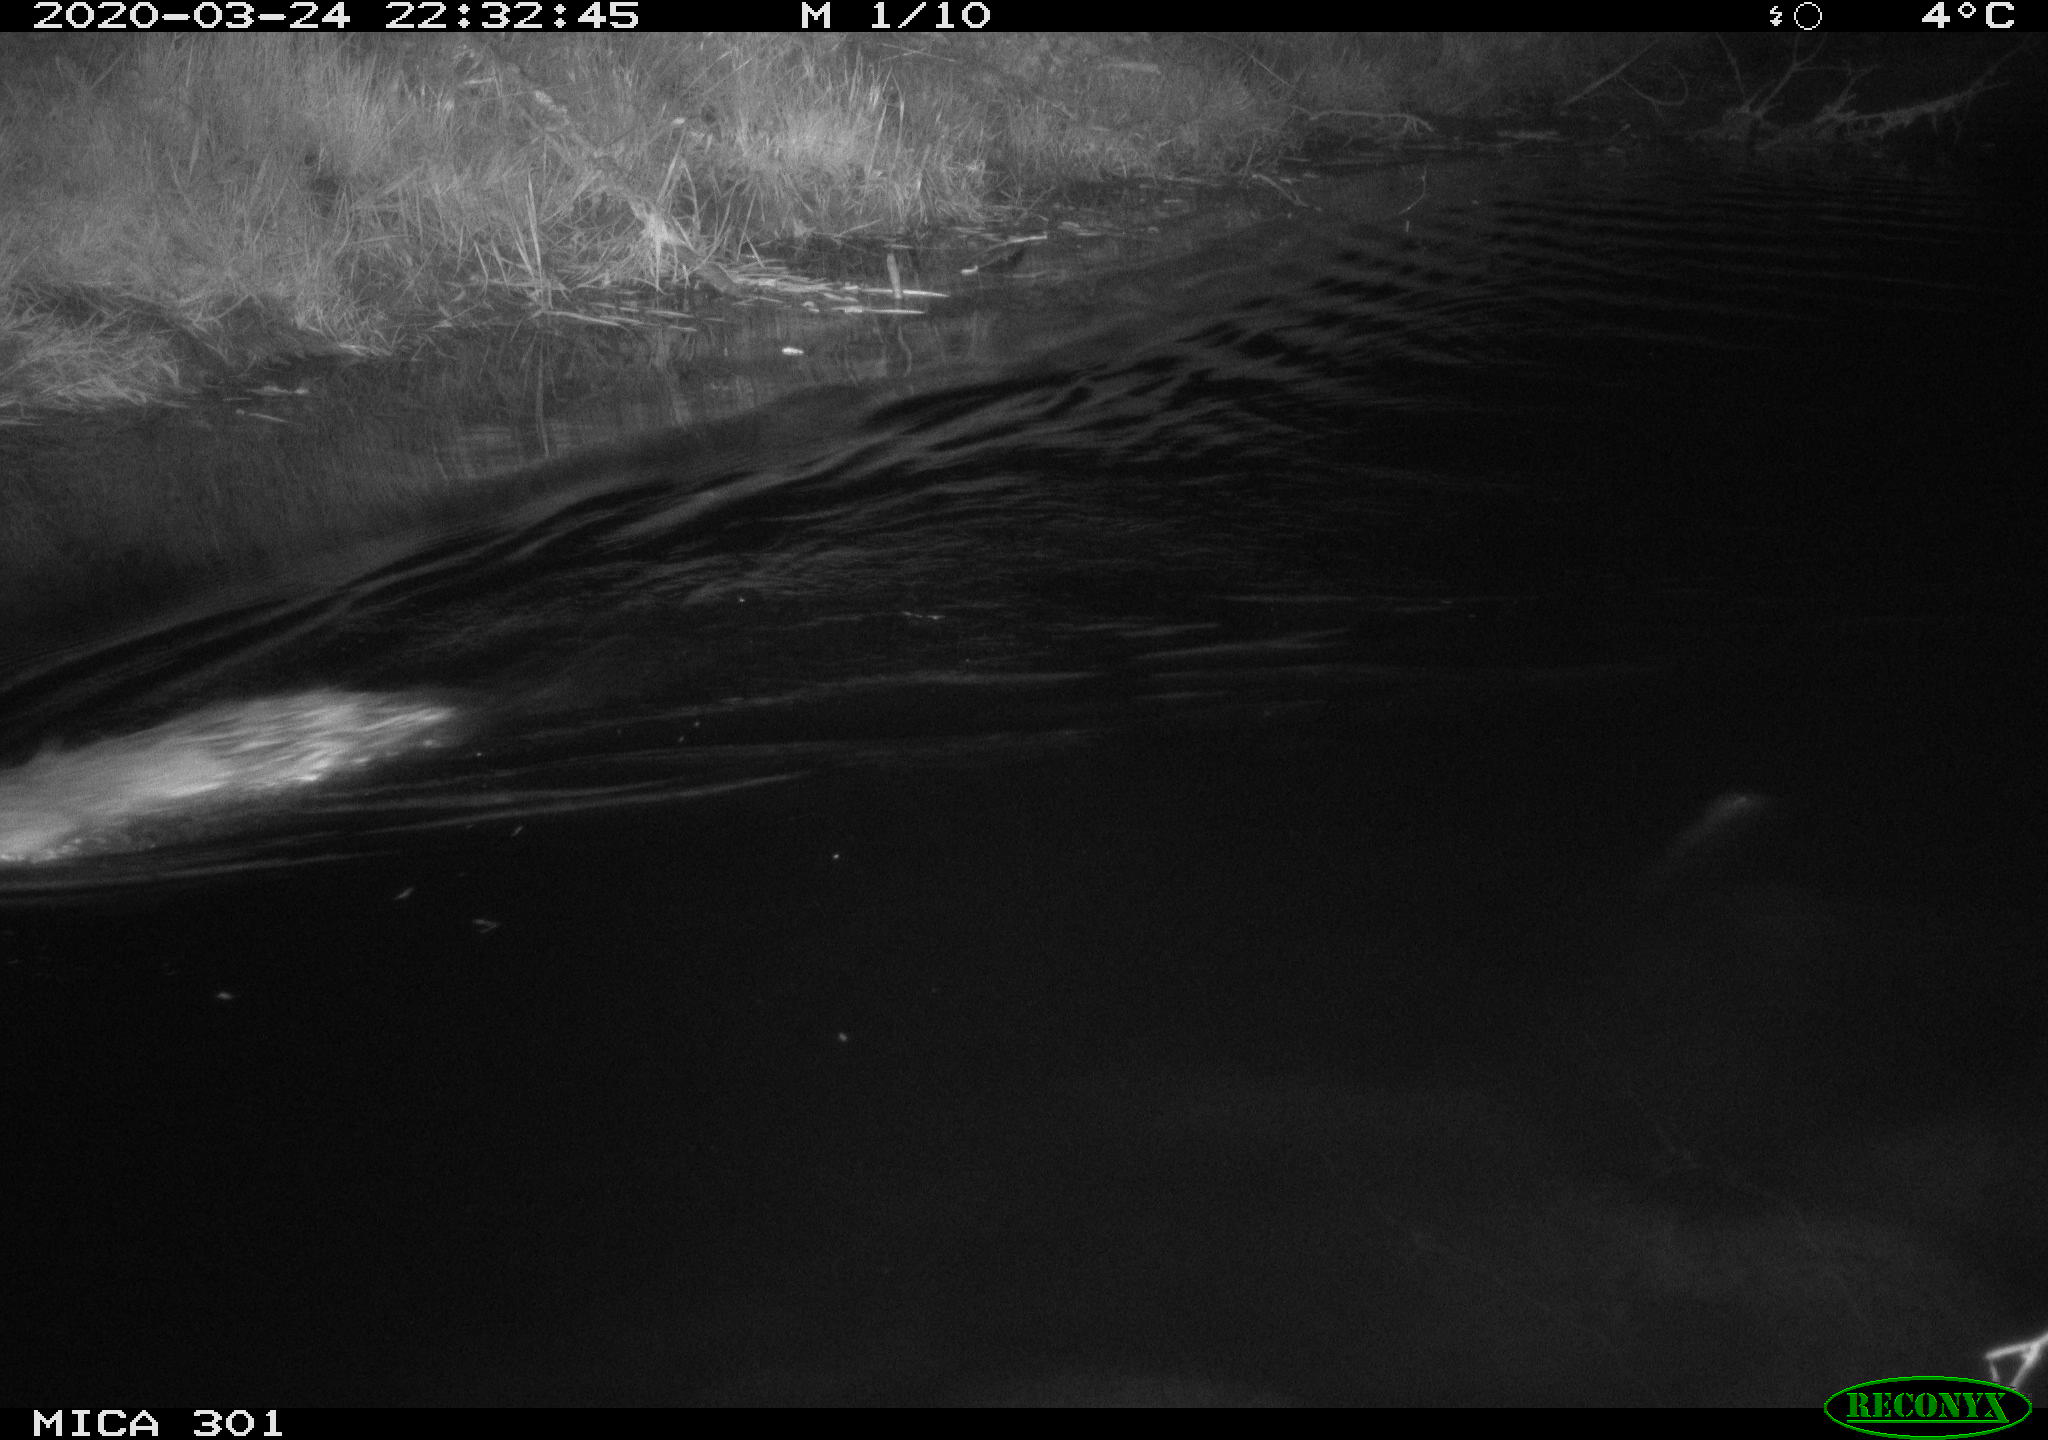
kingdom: Animalia
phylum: Chordata
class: Mammalia
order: Rodentia
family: Castoridae
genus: Castor
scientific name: Castor fiber
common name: Eurasian beaver
